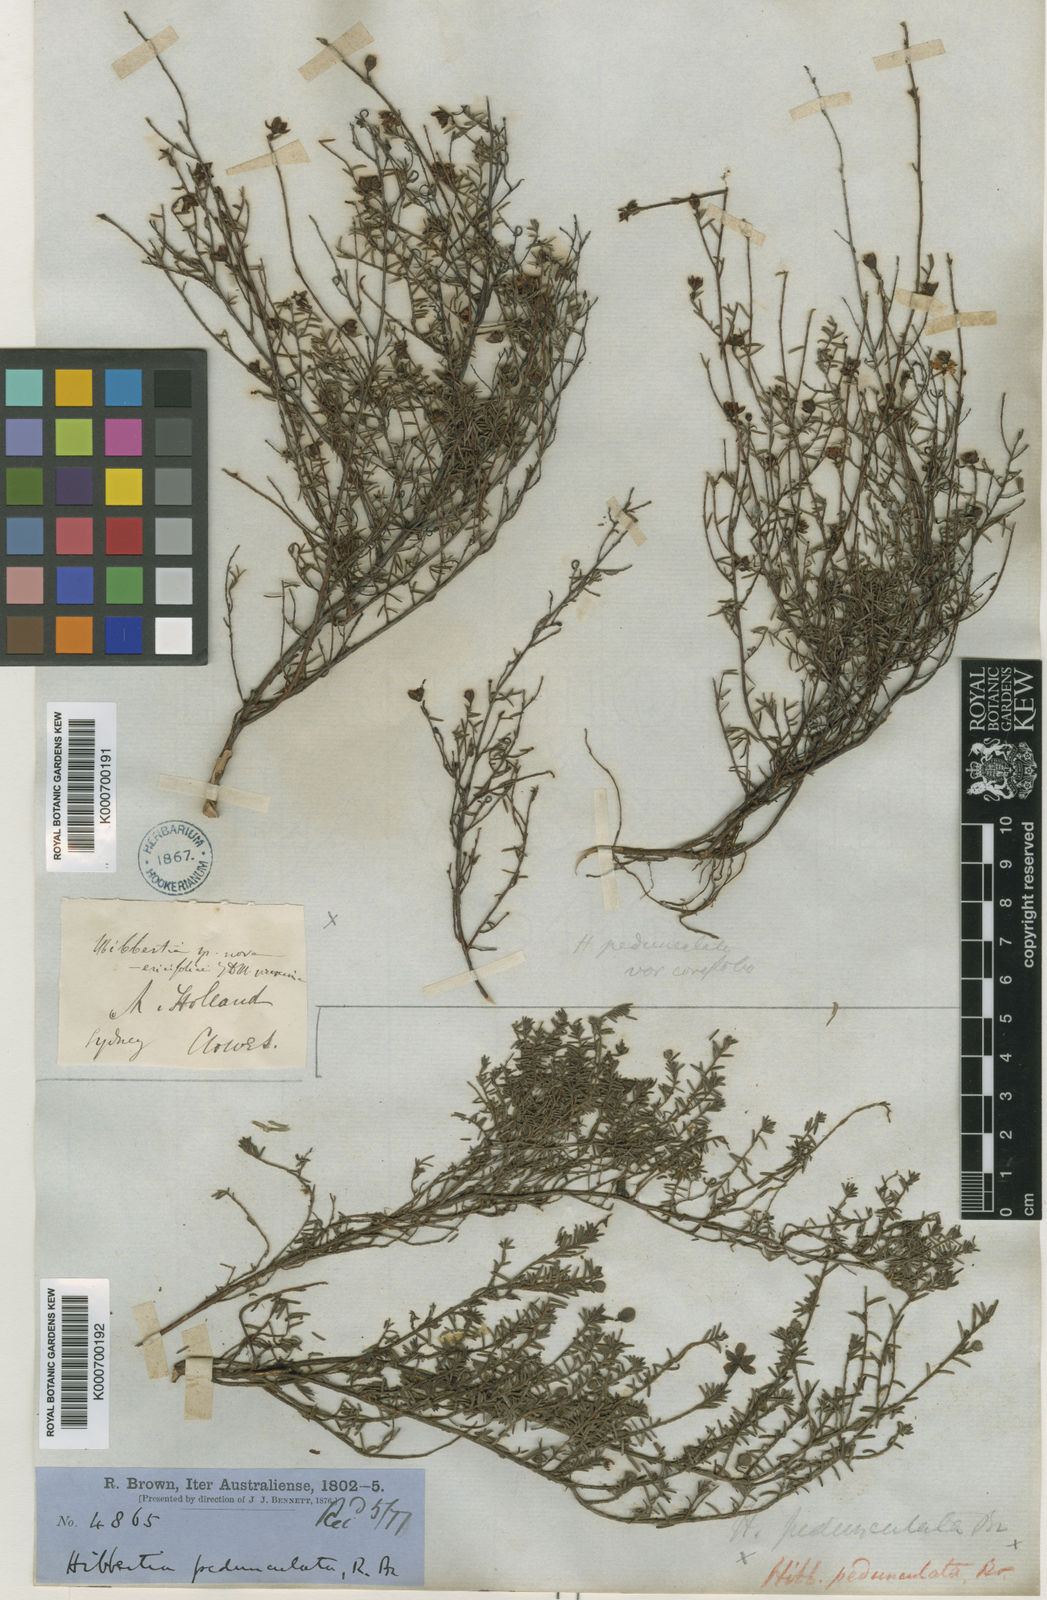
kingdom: Plantae
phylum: Tracheophyta
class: Magnoliopsida
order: Dilleniales
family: Dilleniaceae
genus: Hibbertia
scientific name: Hibbertia pedunculata
